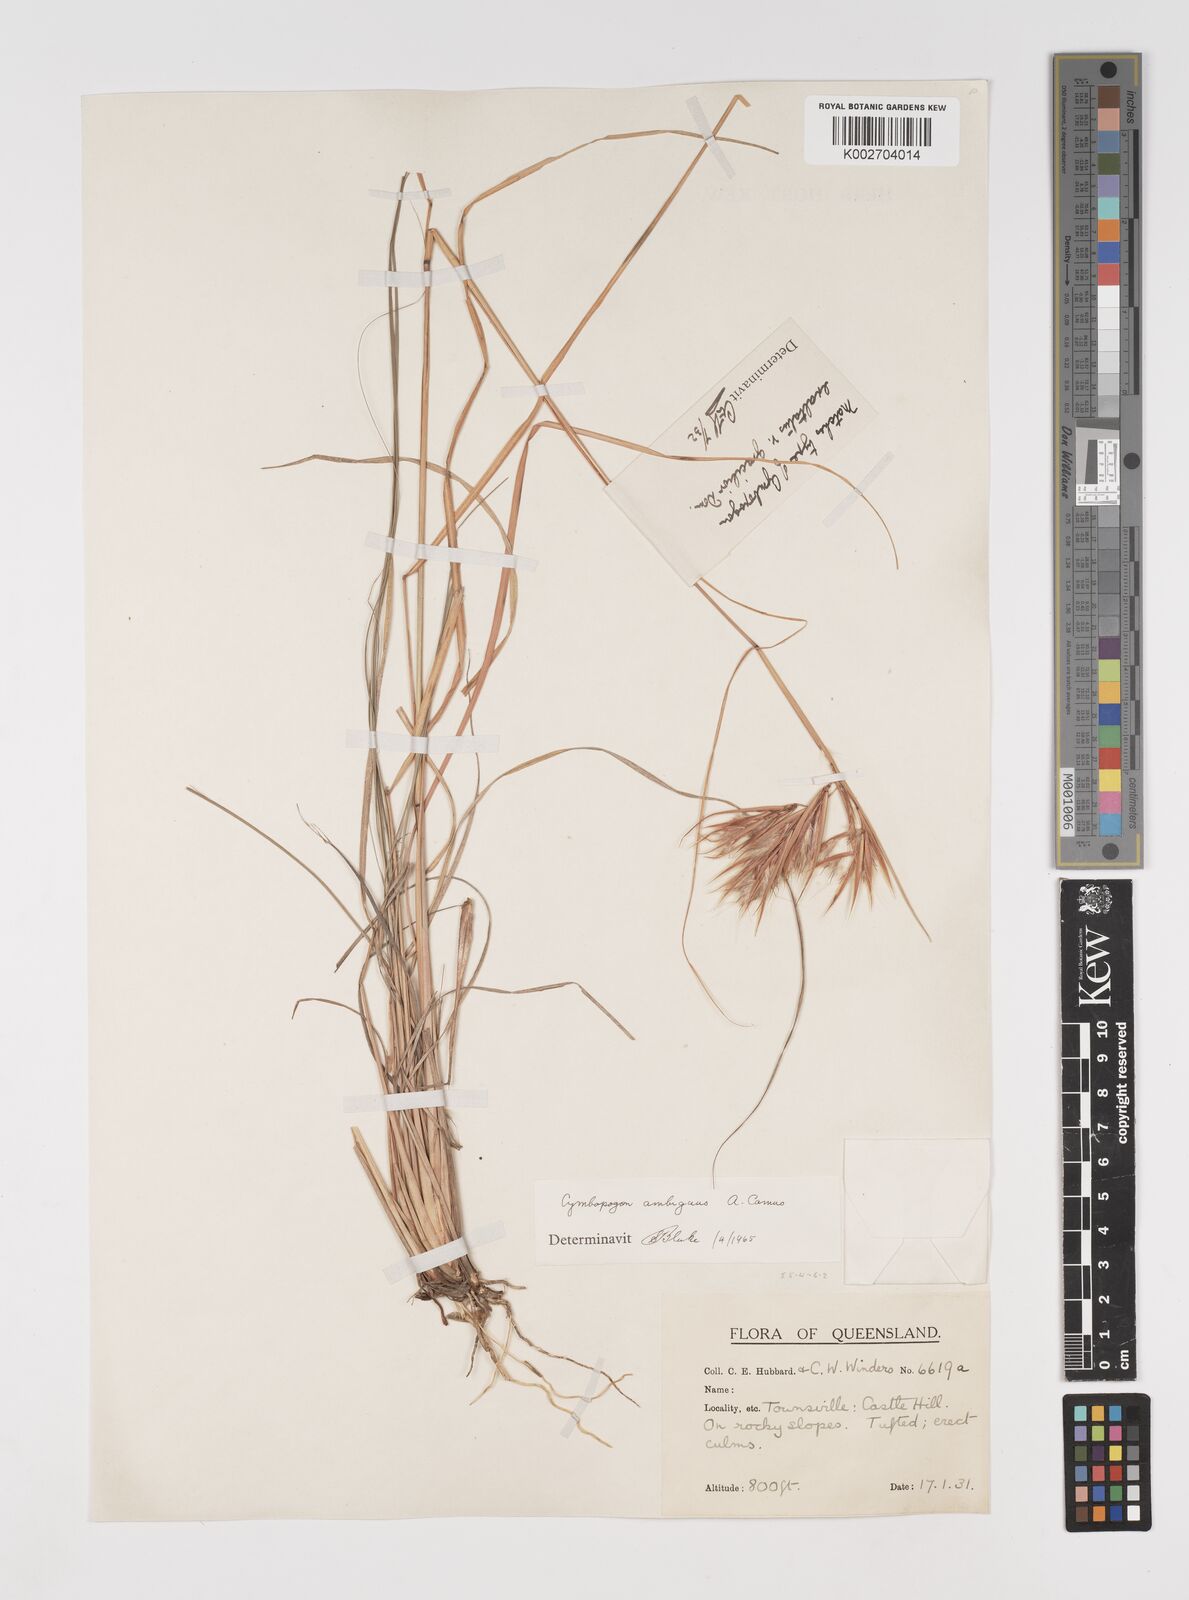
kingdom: Plantae
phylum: Tracheophyta
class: Liliopsida
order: Poales
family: Poaceae
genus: Cymbopogon
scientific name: Cymbopogon ambiguus
